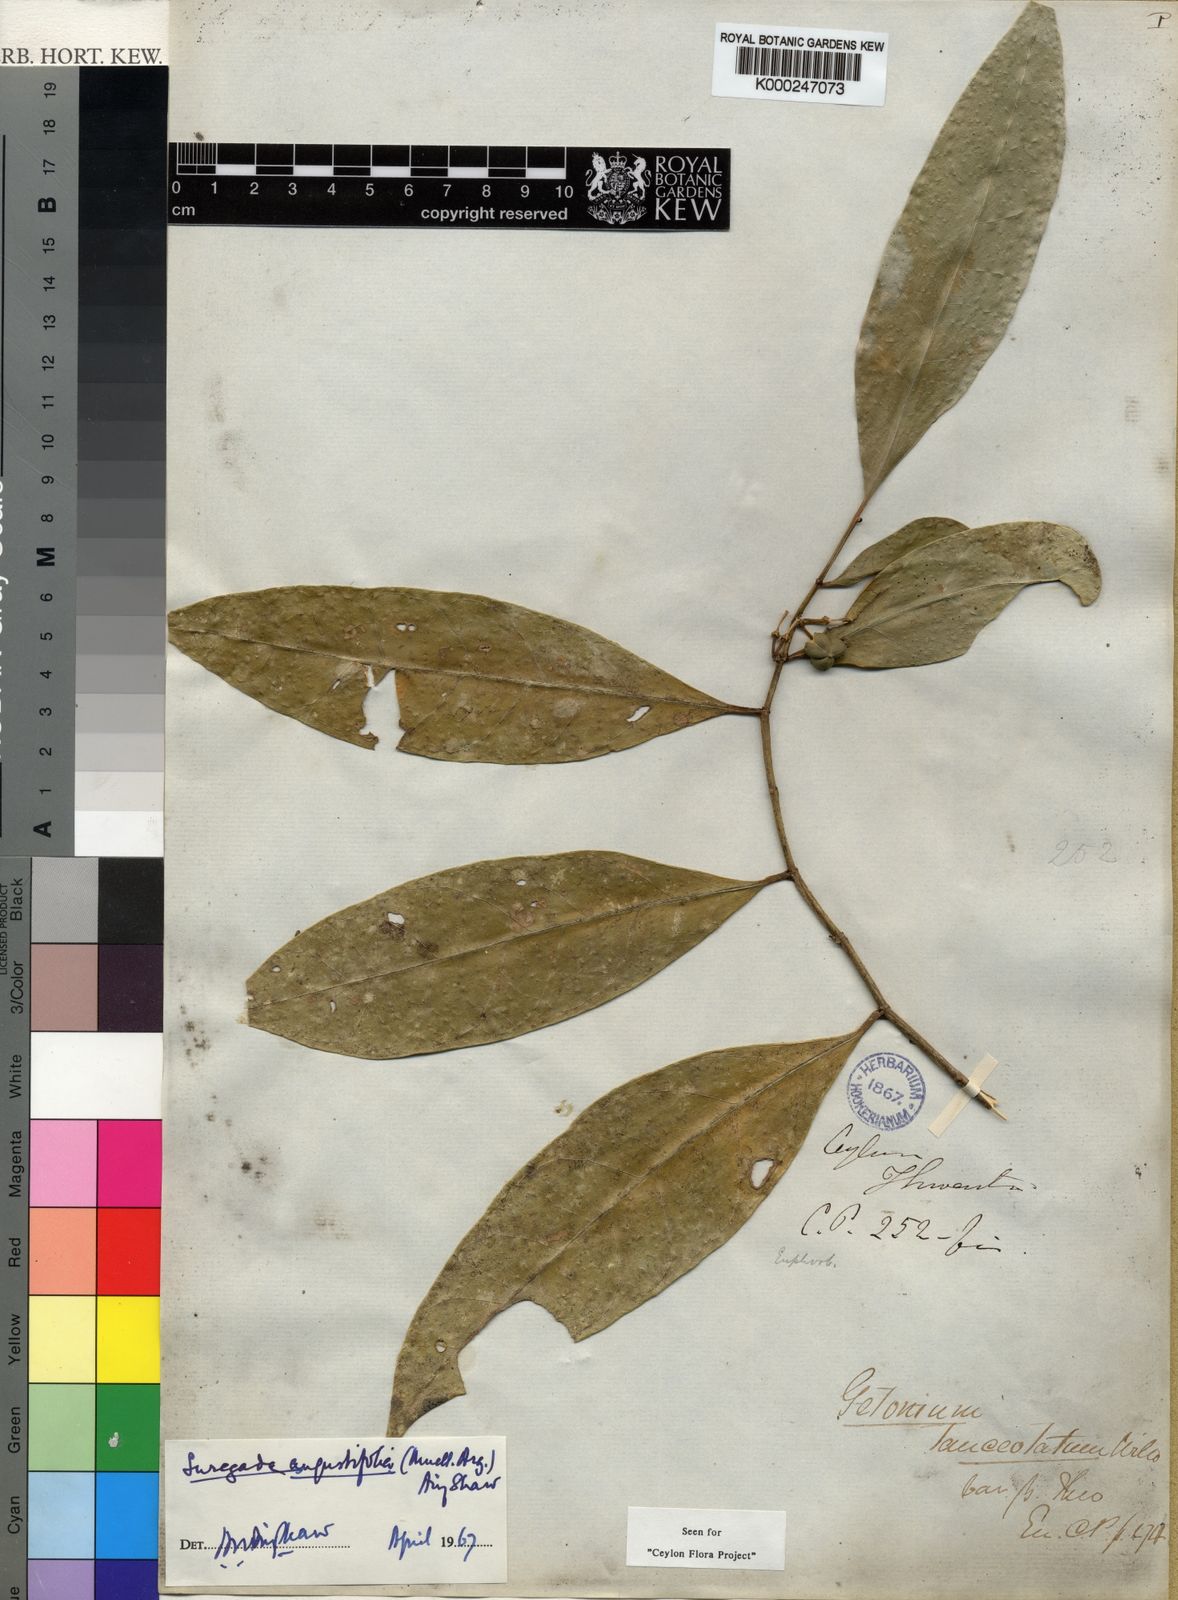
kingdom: Plantae
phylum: Tracheophyta
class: Magnoliopsida
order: Malpighiales
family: Euphorbiaceae
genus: Suregada
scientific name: Suregada
